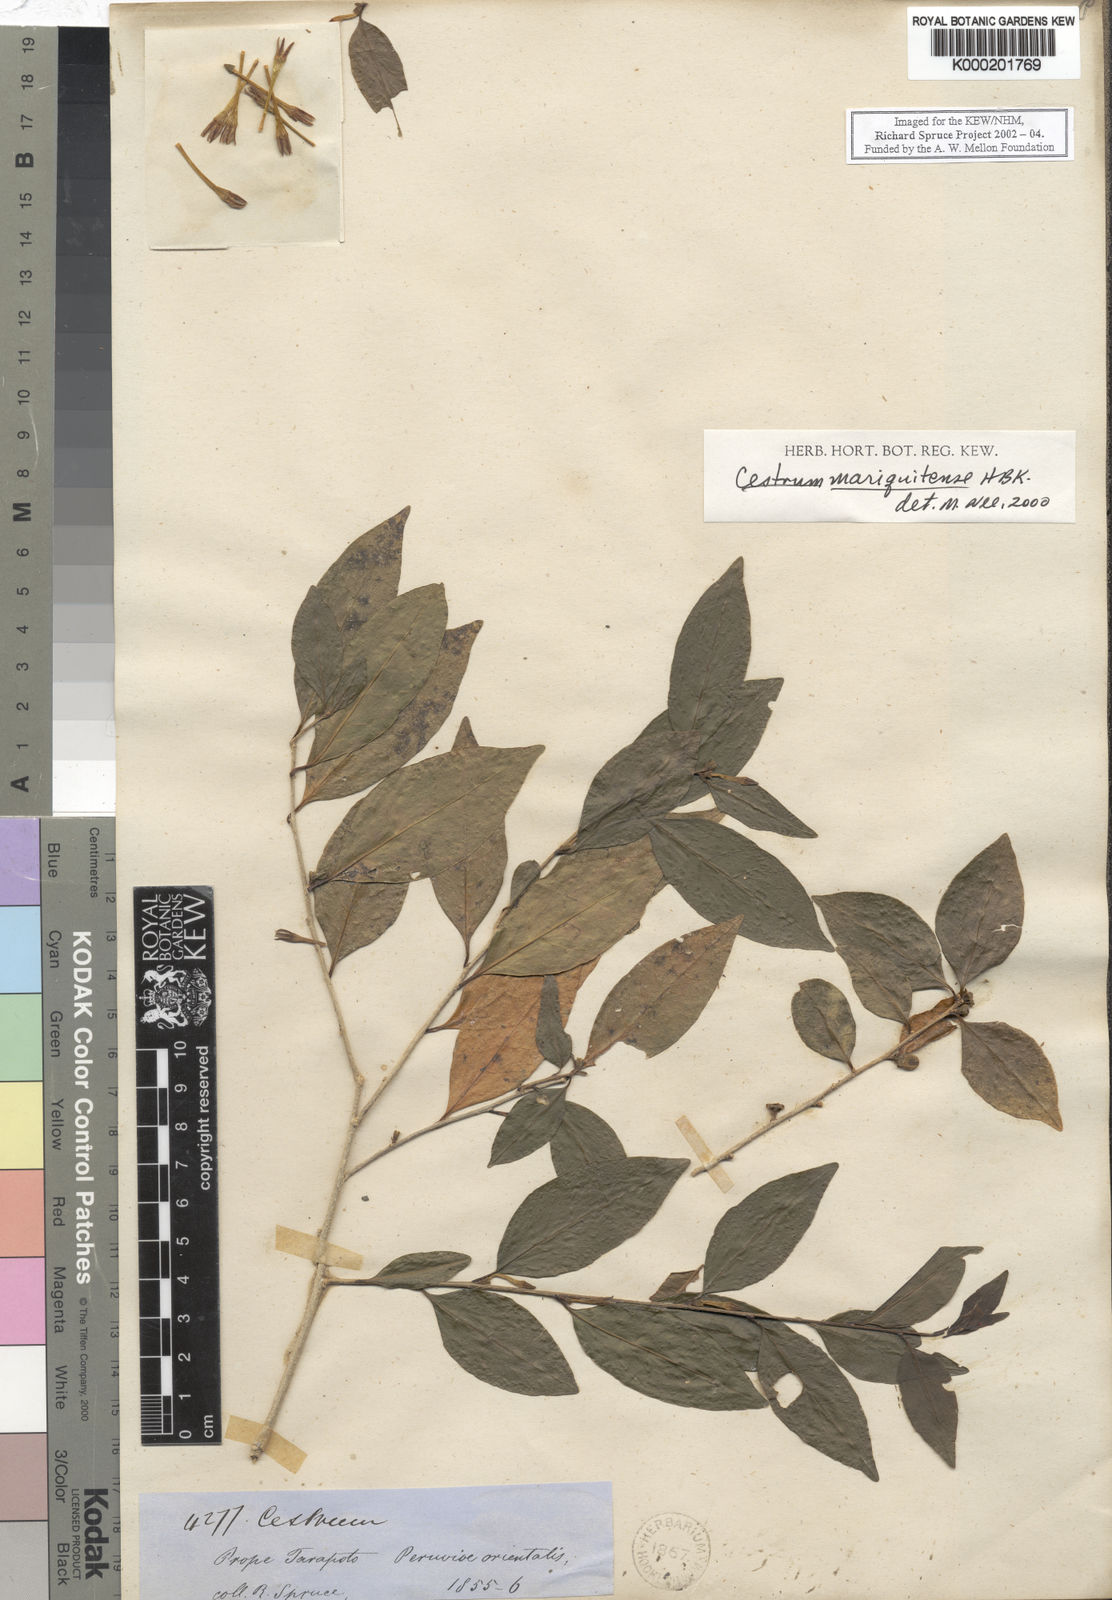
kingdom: Plantae
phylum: Tracheophyta
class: Magnoliopsida
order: Solanales
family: Solanaceae
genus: Cestrum
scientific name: Cestrum
